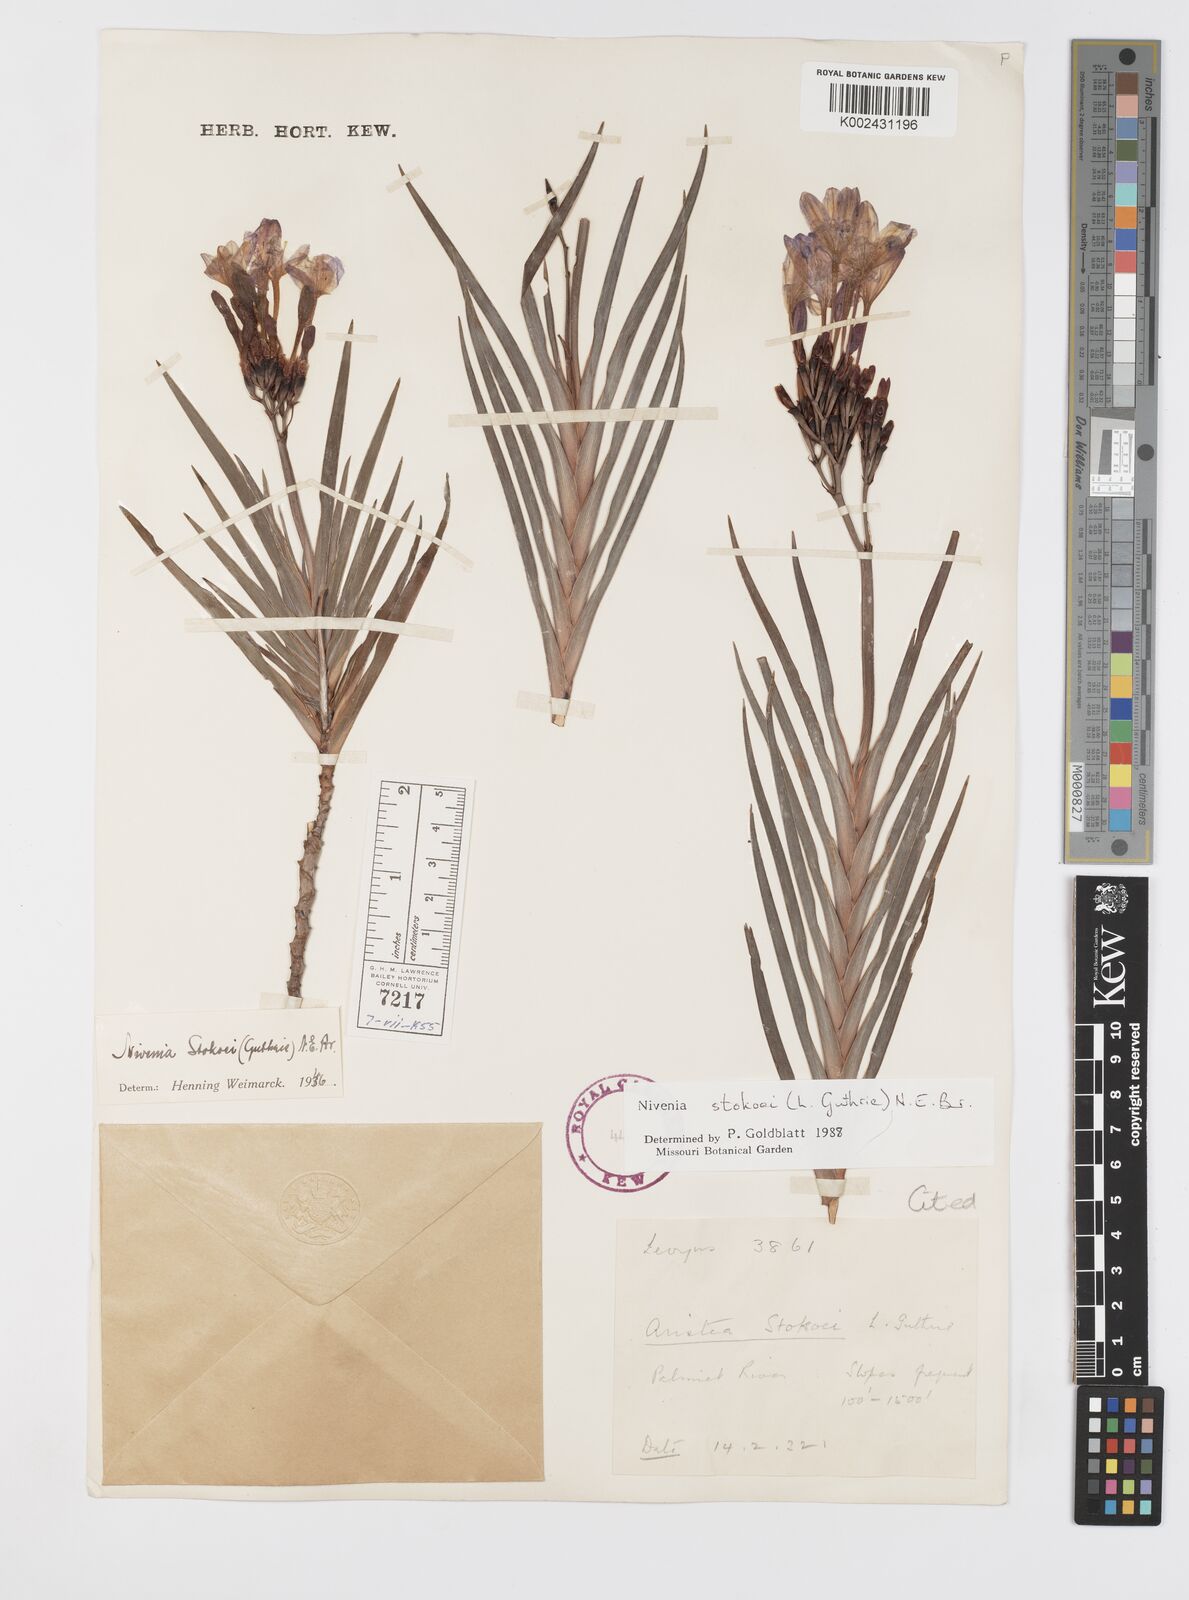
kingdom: Plantae
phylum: Tracheophyta
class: Liliopsida
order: Asparagales
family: Iridaceae
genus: Nivenia
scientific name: Nivenia stokoei
